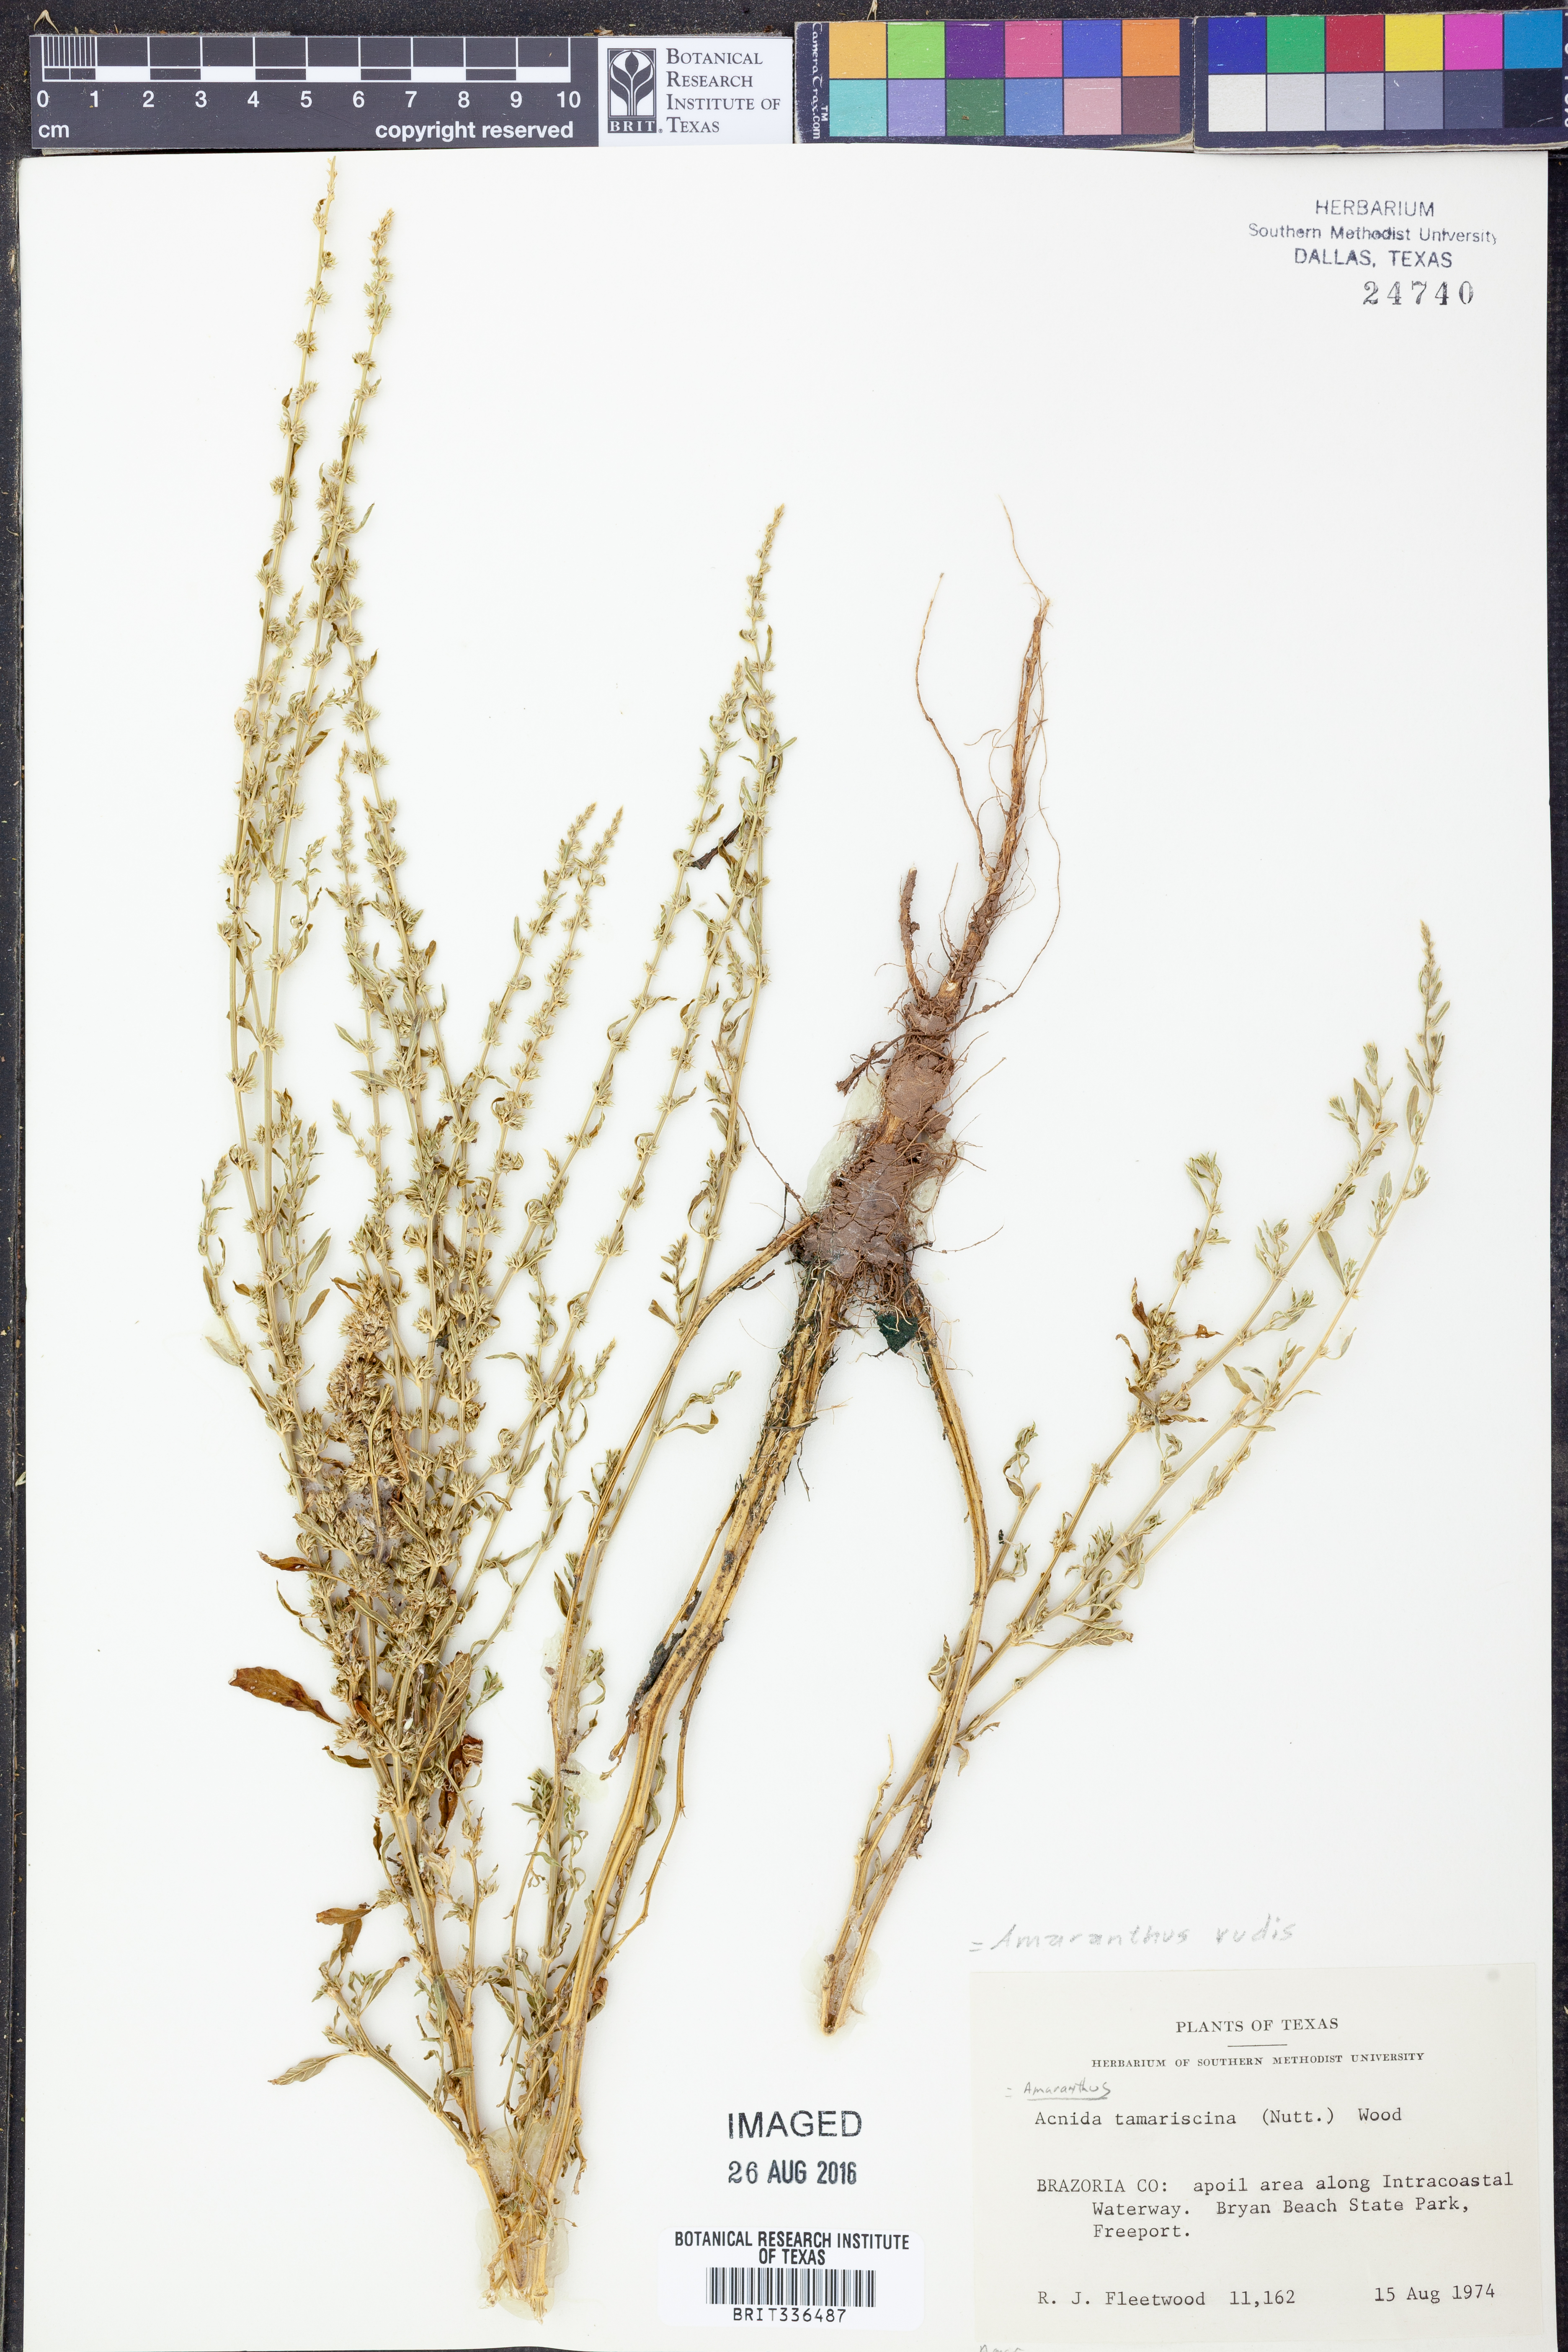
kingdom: Plantae
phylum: Tracheophyta
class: Magnoliopsida
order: Caryophyllales
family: Amaranthaceae
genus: Amaranthus
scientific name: Amaranthus tuberculatus
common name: Rough-fruit amaranth
